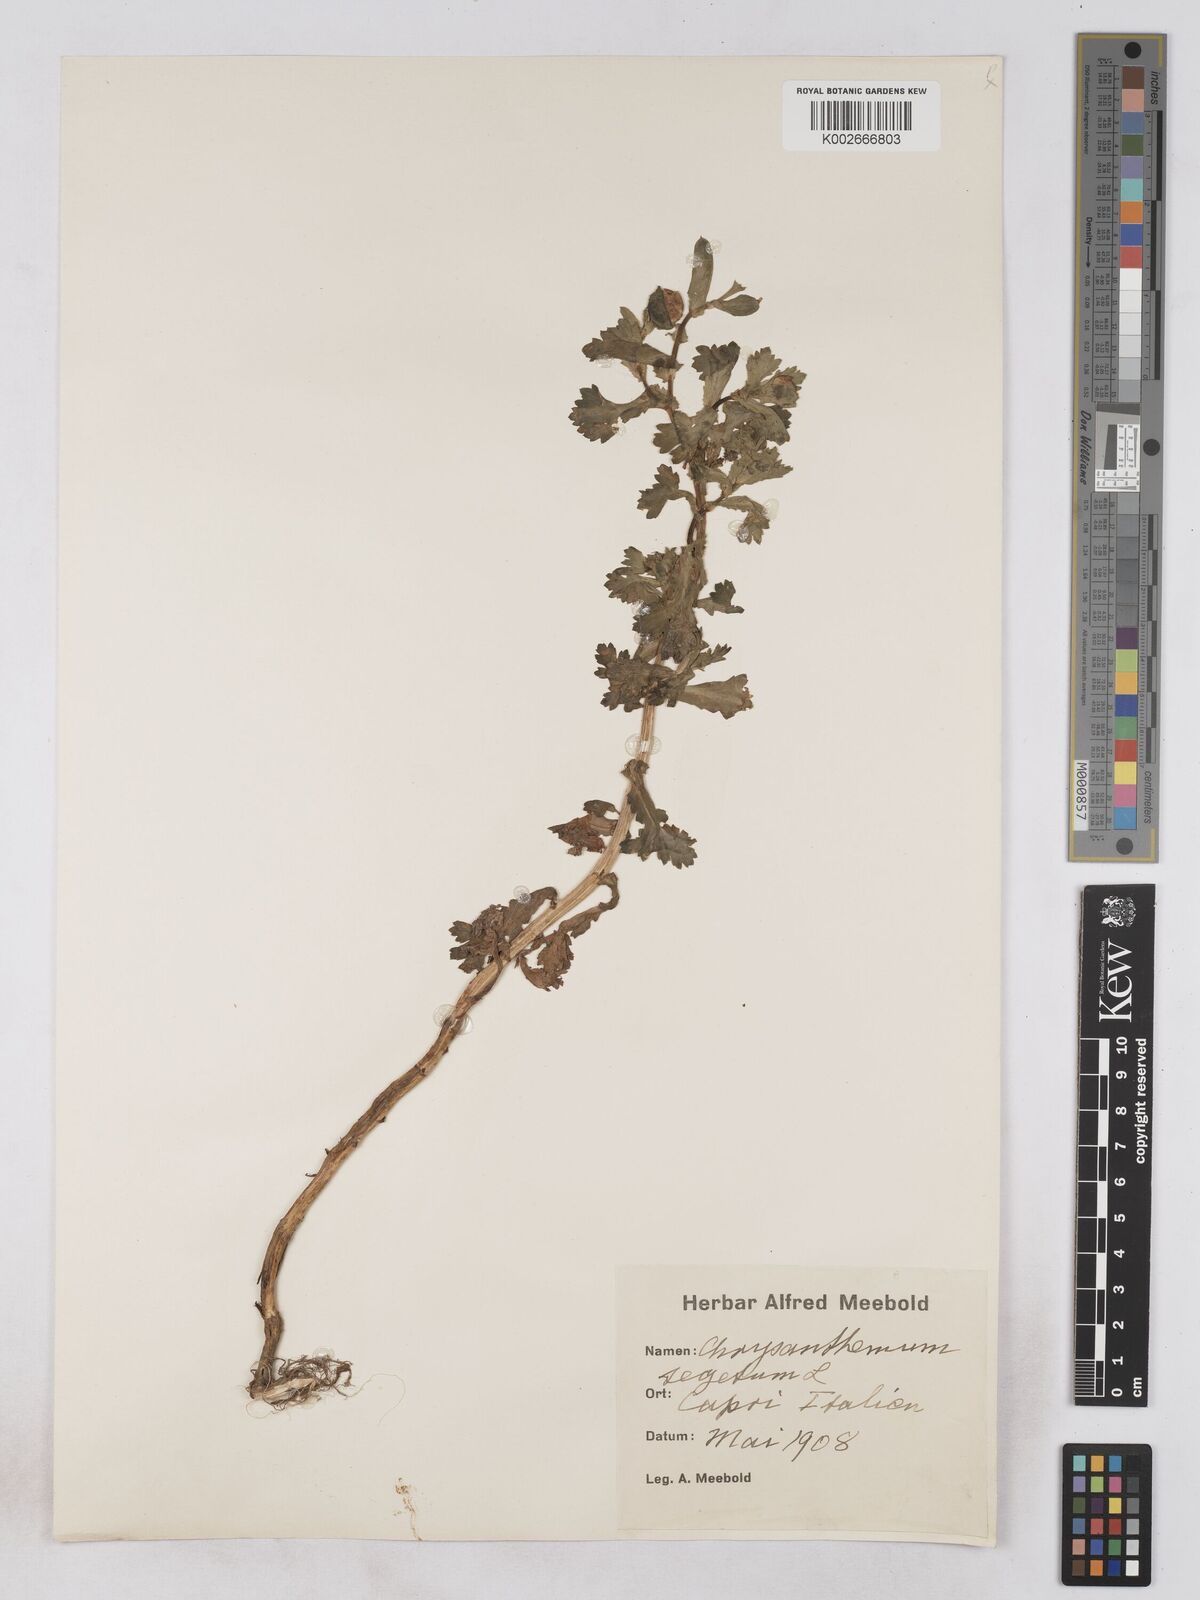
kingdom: Plantae
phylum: Tracheophyta
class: Magnoliopsida
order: Asterales
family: Asteraceae
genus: Glebionis
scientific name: Glebionis segetum
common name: Corndaisy
